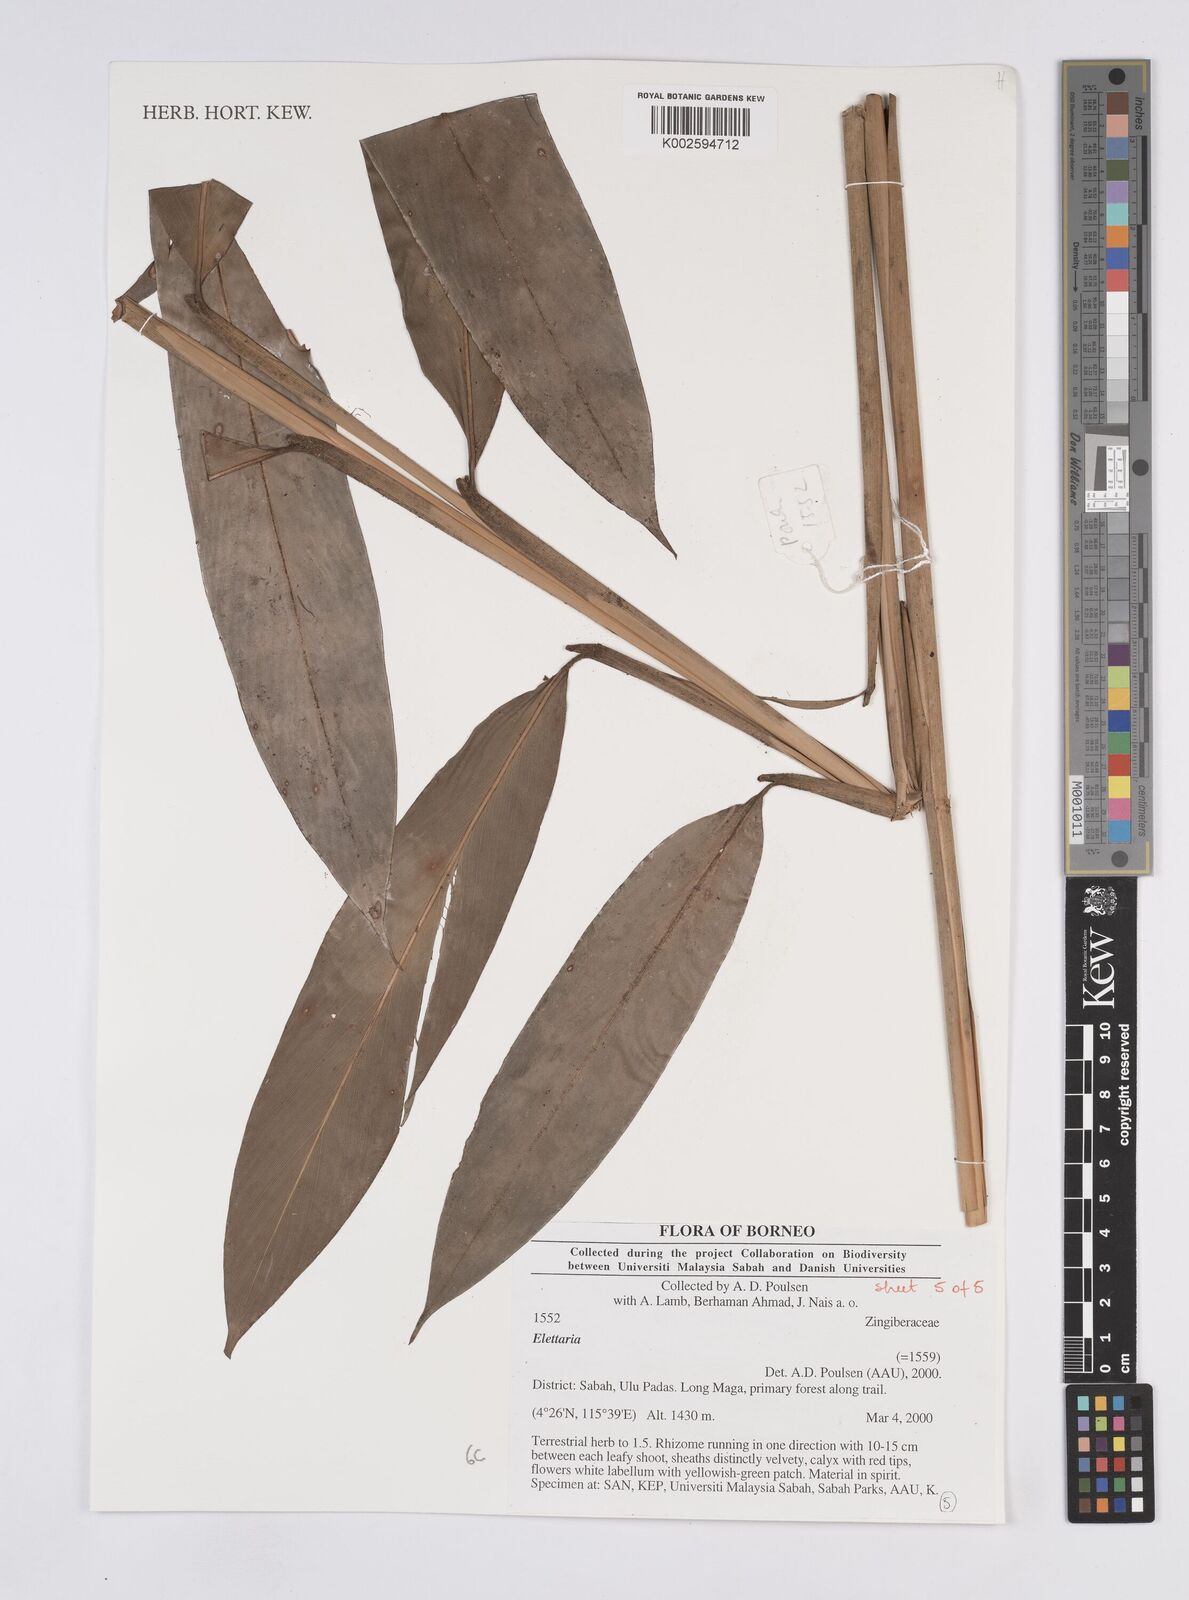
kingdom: Plantae
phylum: Tracheophyta
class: Liliopsida
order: Zingiberales
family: Zingiberaceae
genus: Elettaria
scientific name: Elettaria
